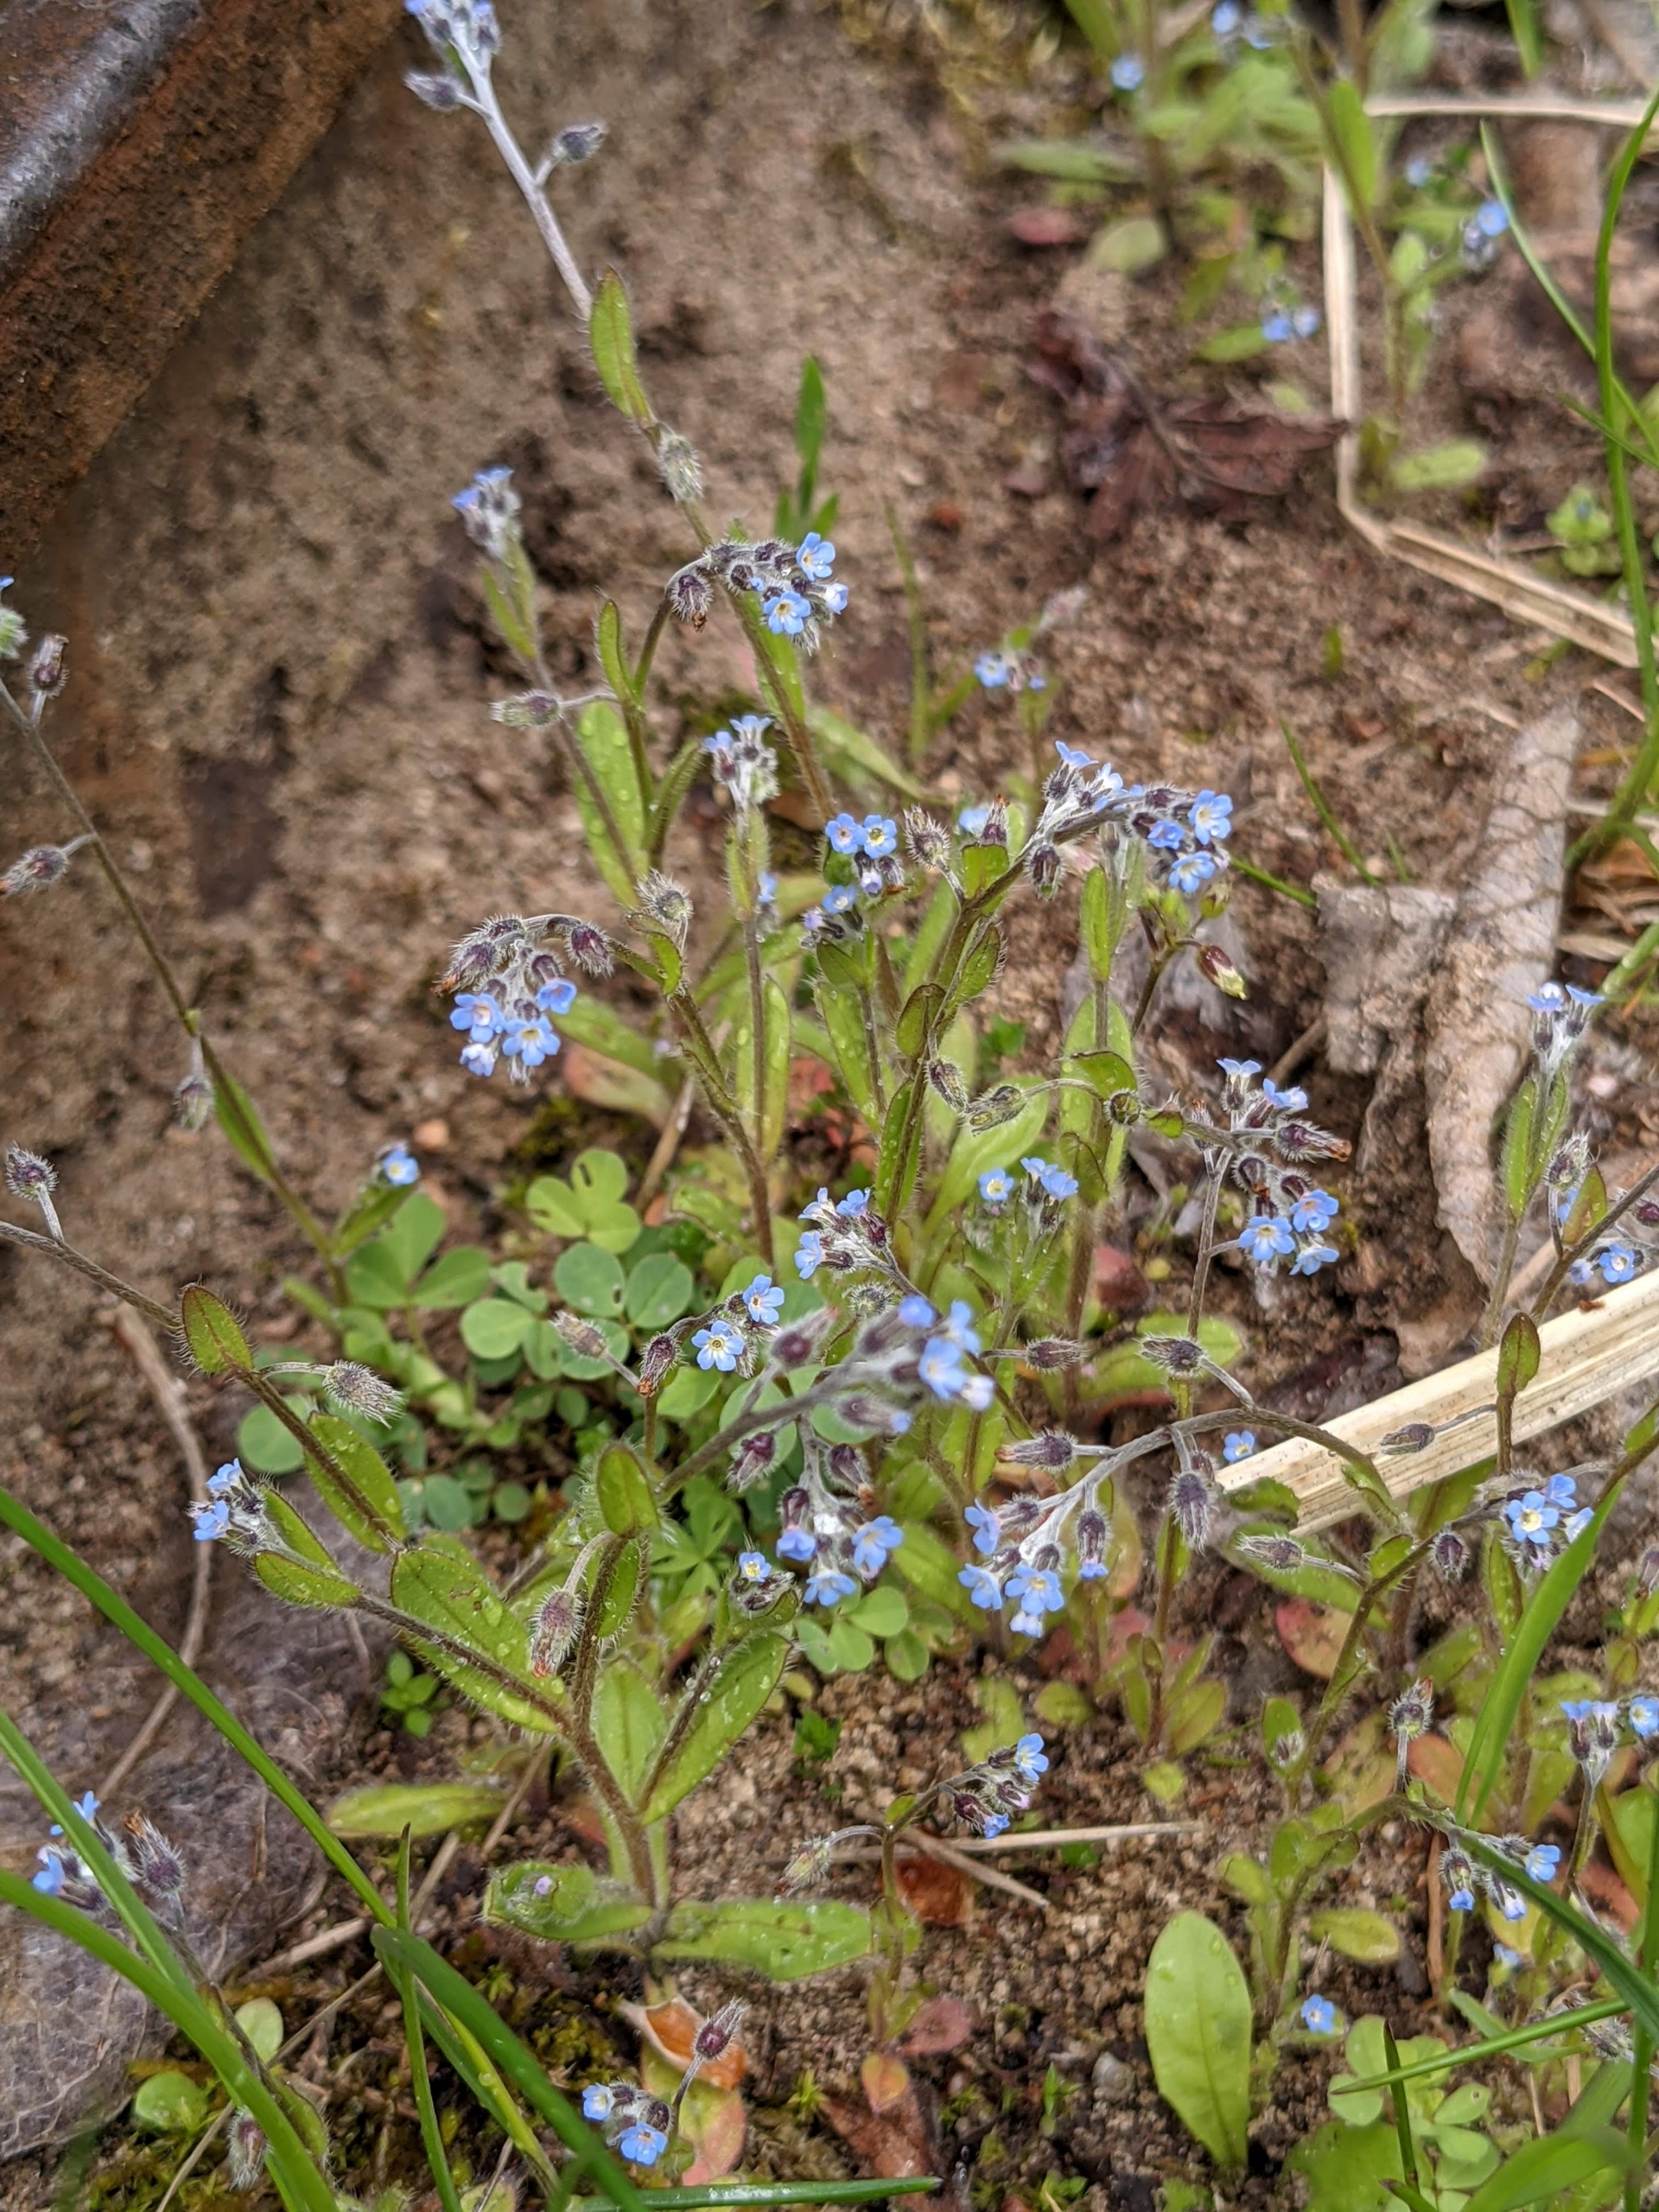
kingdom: Plantae
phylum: Tracheophyta
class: Magnoliopsida
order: Boraginales
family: Boraginaceae
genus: Myosotis
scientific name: Myosotis arvensis
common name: Mark-forglemmigej
